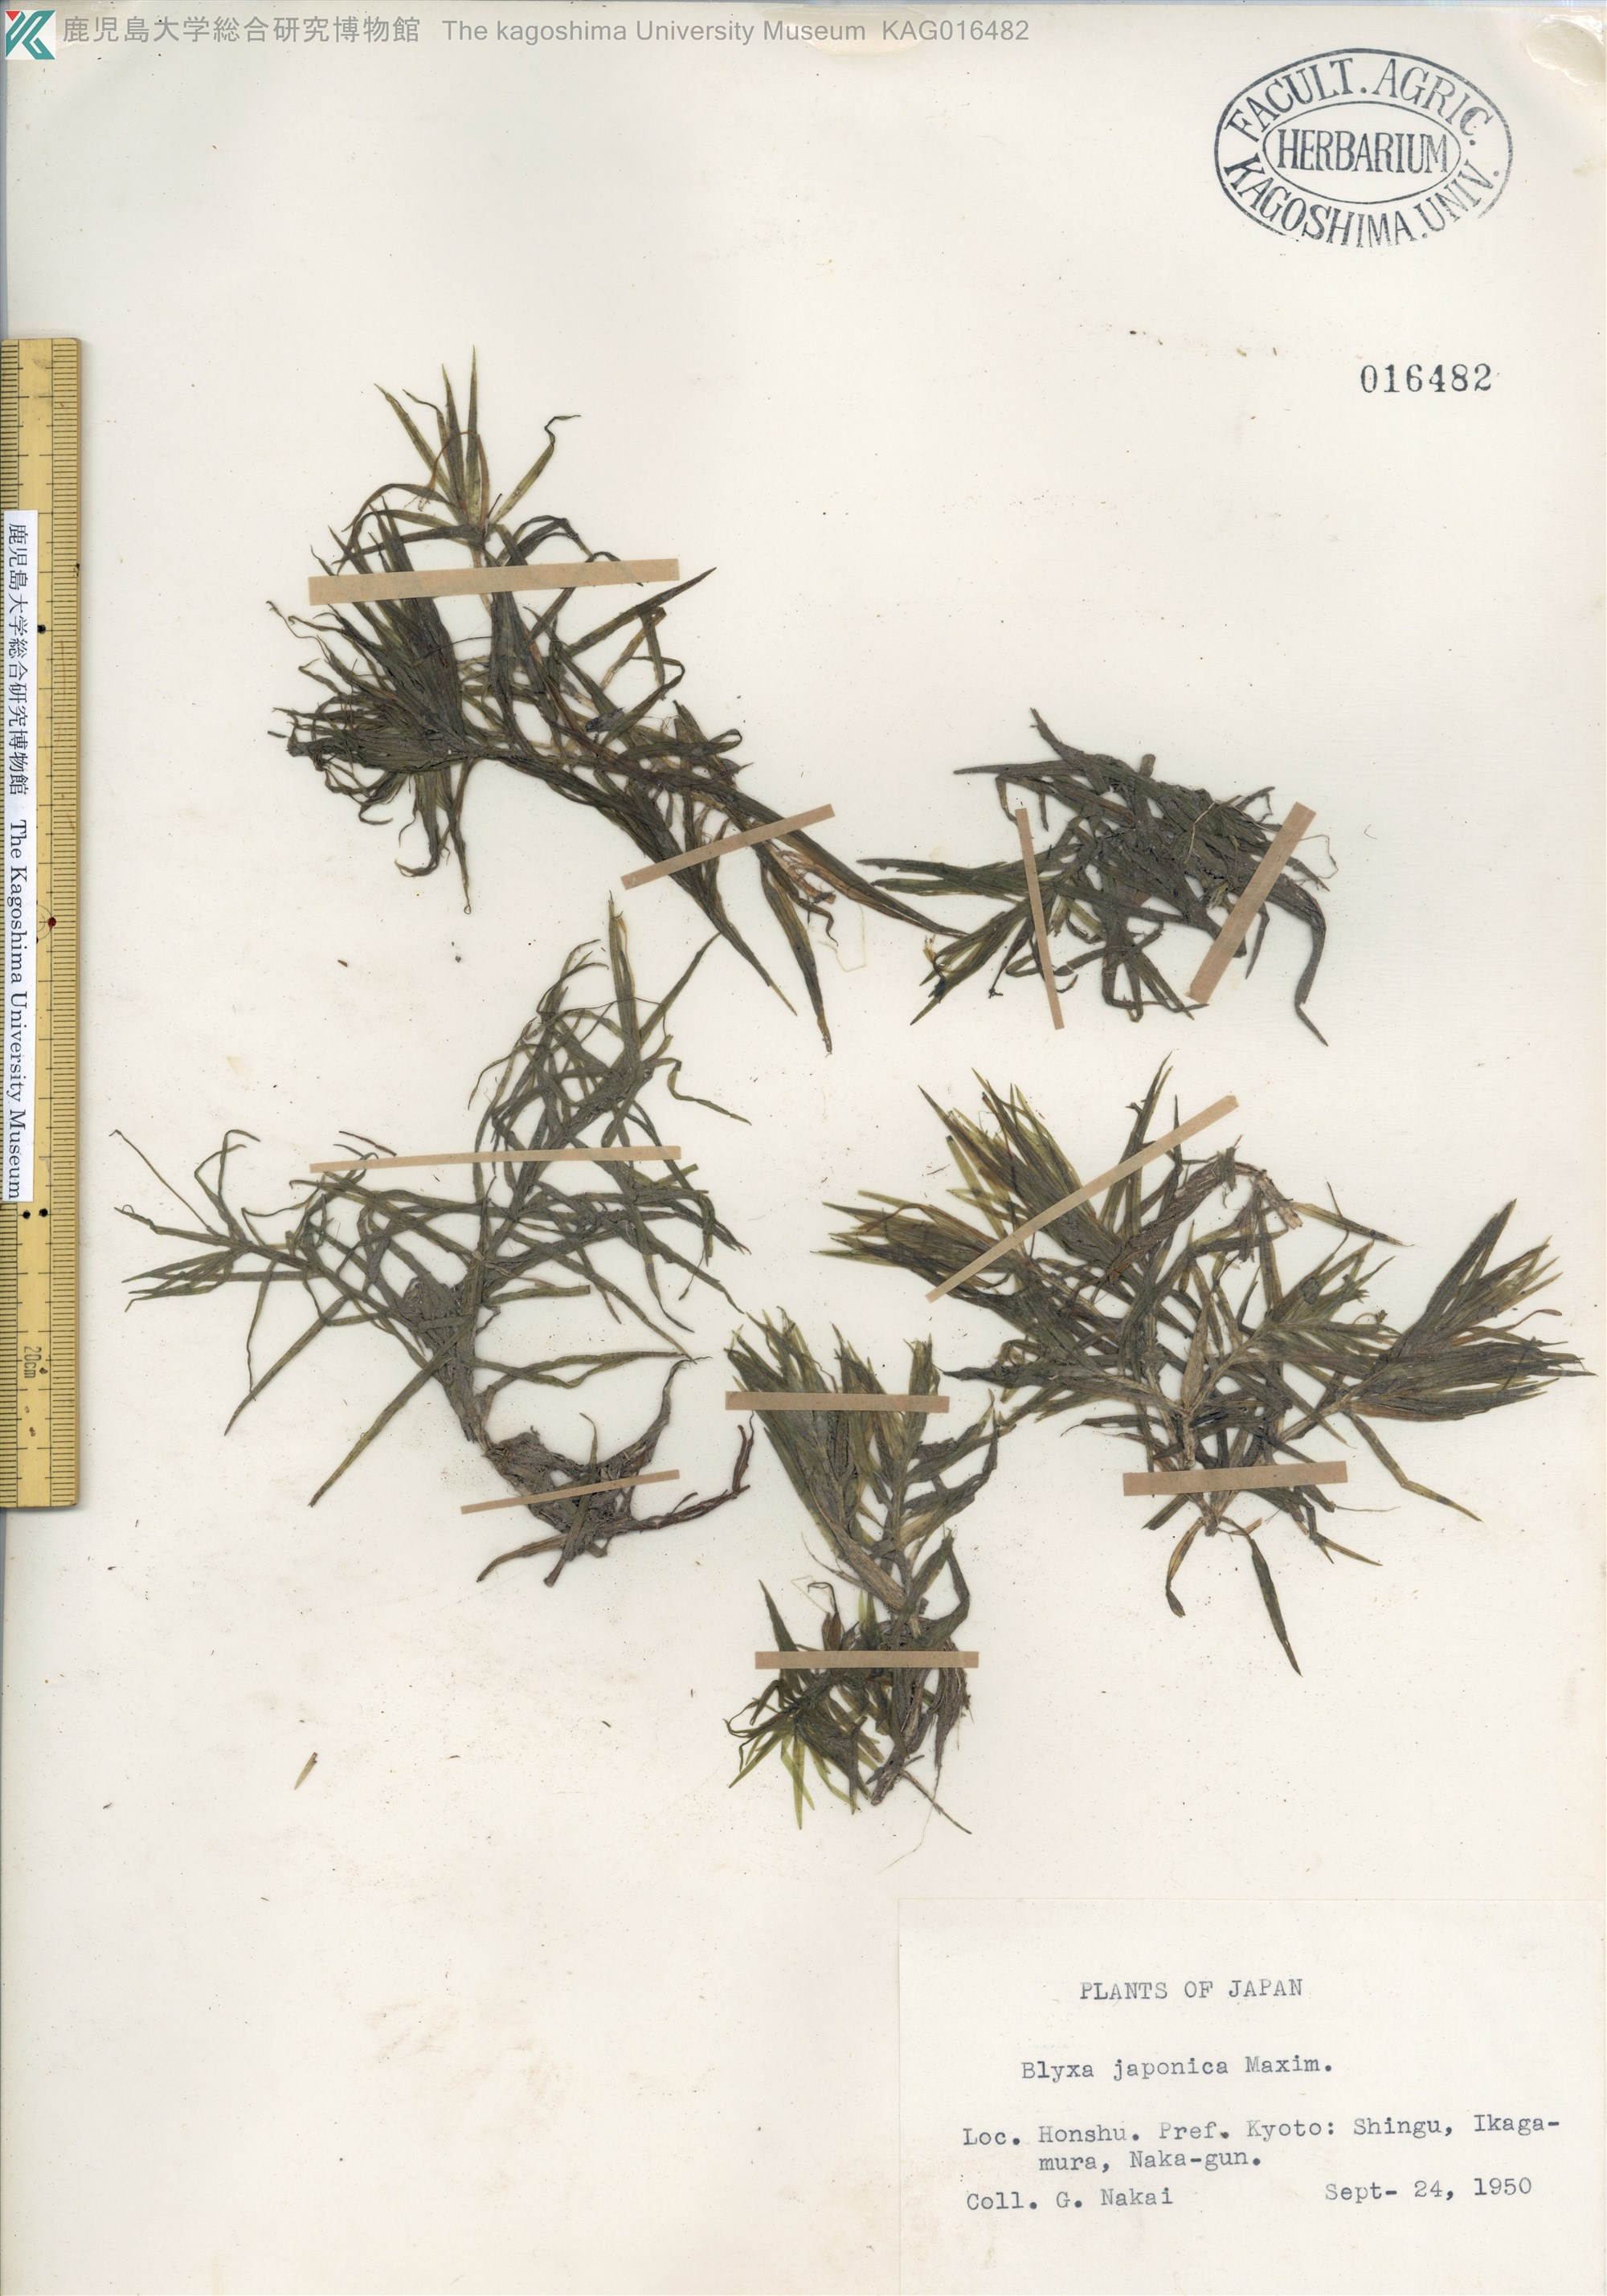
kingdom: Plantae
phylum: Tracheophyta
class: Liliopsida
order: Alismatales
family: Hydrocharitaceae
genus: Blyxa
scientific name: Blyxa japonica
